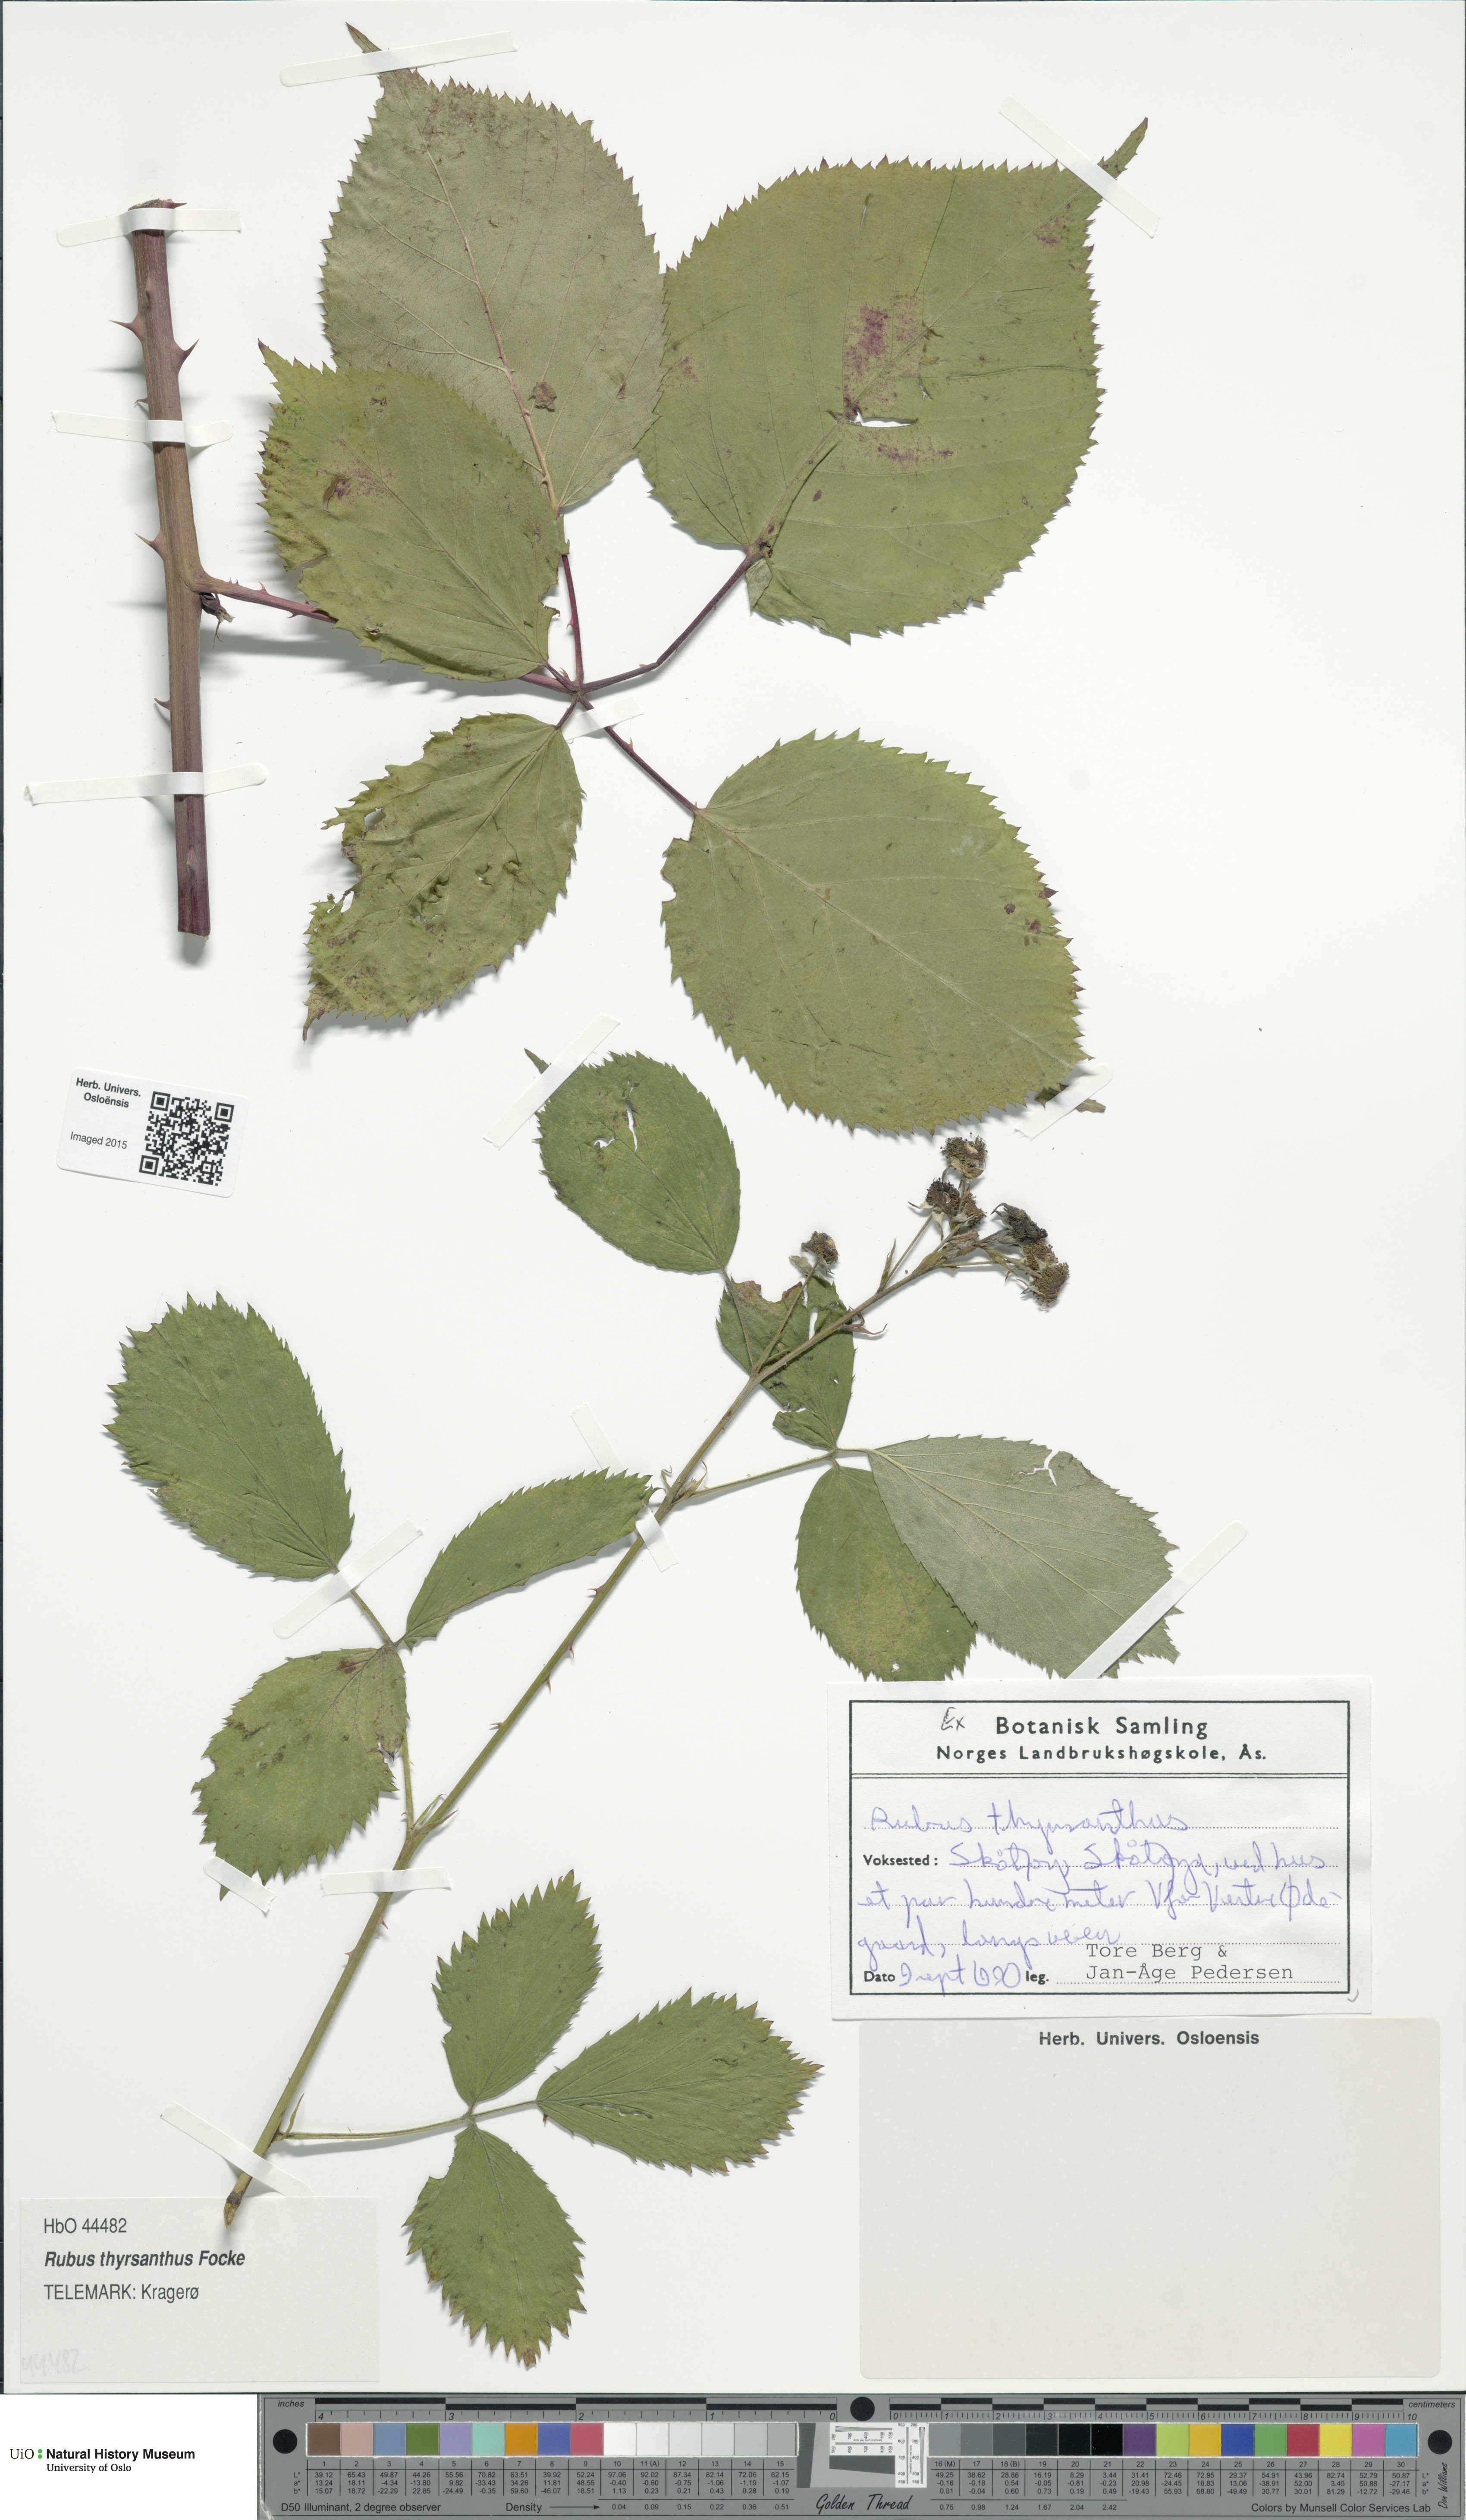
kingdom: Plantae
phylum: Tracheophyta
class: Magnoliopsida
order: Rosales
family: Rosaceae
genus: Rubus
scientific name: Rubus grabowskii
